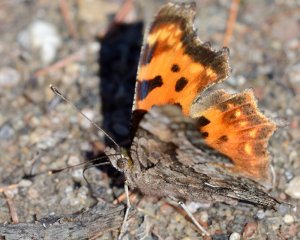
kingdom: Animalia
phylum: Arthropoda
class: Insecta
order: Lepidoptera
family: Nymphalidae
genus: Polygonia
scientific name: Polygonia comma
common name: Eastern Comma
